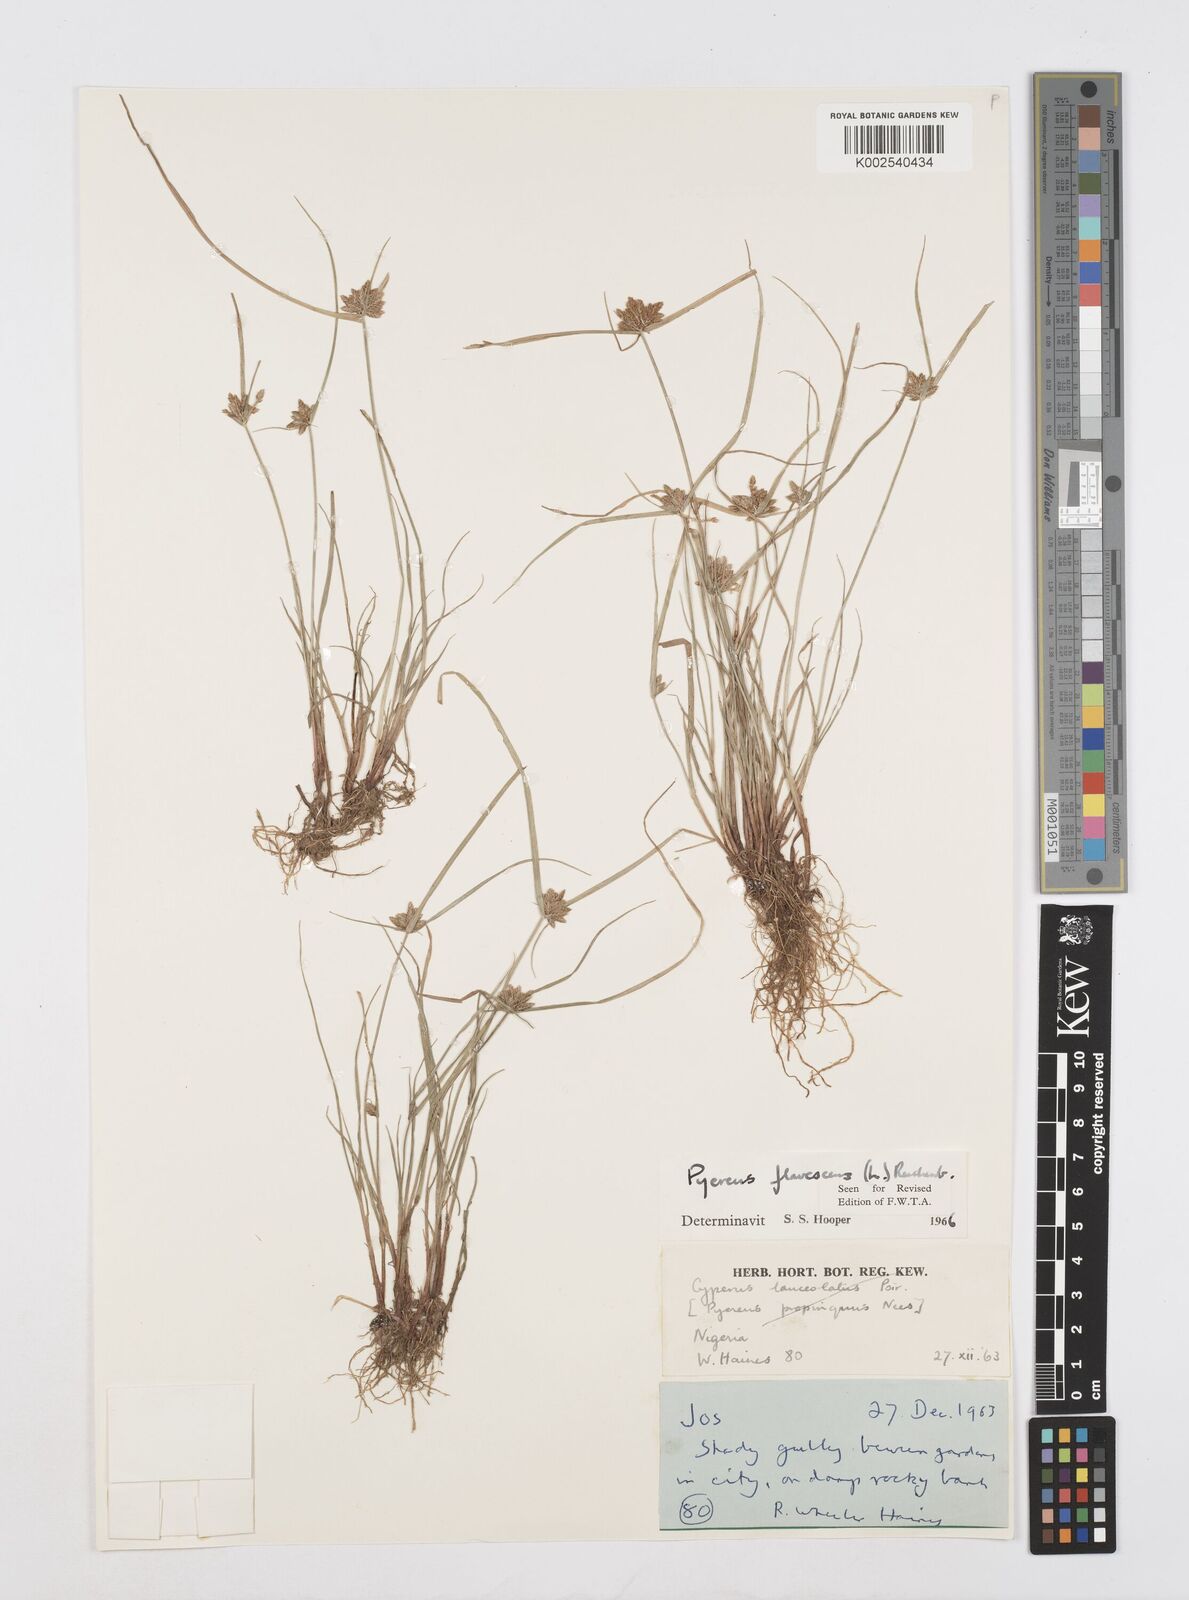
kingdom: Plantae
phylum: Tracheophyta
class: Liliopsida
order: Poales
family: Cyperaceae
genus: Cyperus
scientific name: Cyperus flavescens
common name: Yellow galingale
